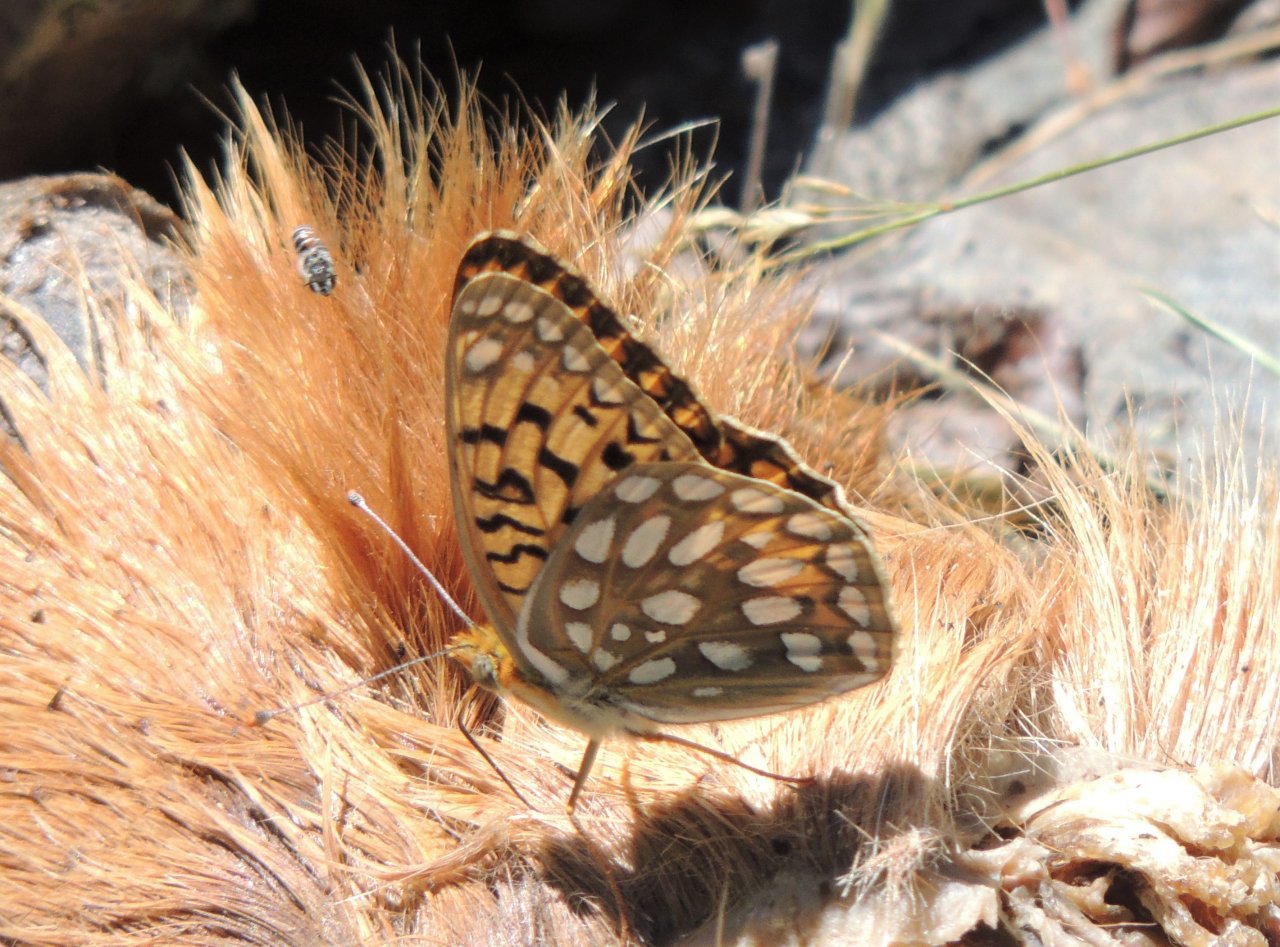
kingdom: Animalia
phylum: Arthropoda
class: Insecta
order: Lepidoptera
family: Nymphalidae
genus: Speyeria
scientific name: Speyeria callippe
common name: Callippe Fritillary
